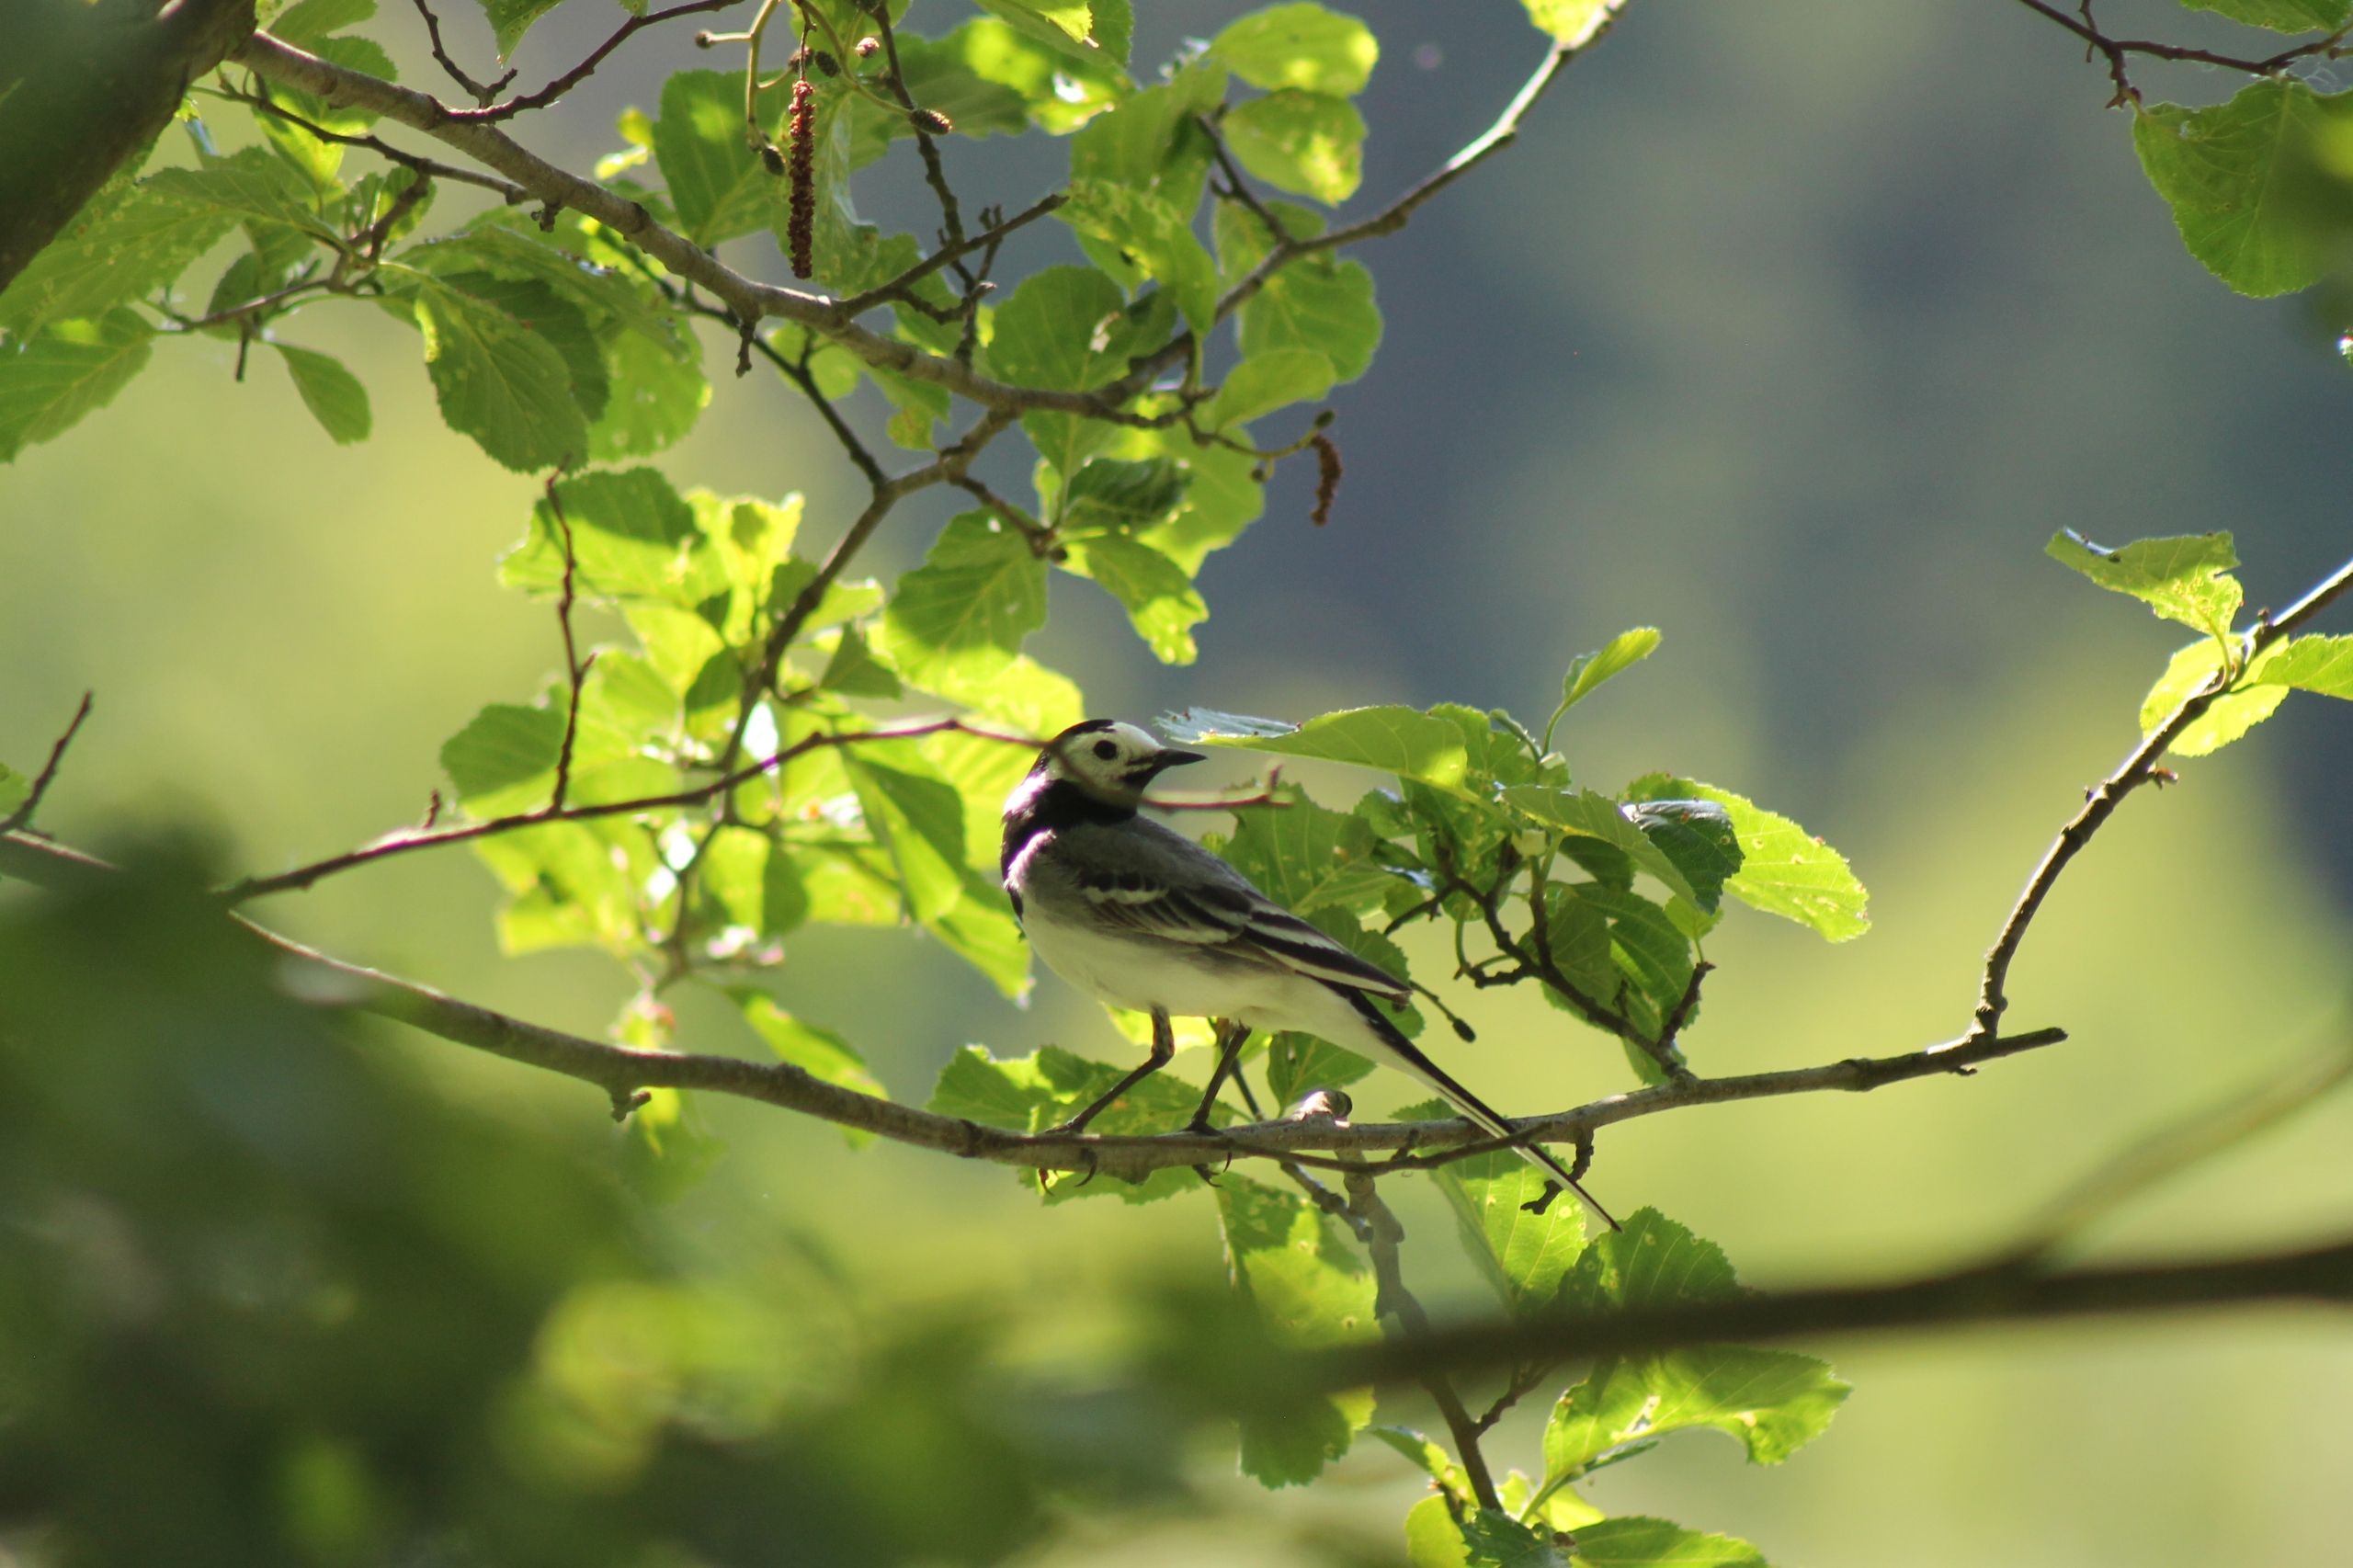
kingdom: Animalia
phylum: Chordata
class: Aves
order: Passeriformes
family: Motacillidae
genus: Motacilla
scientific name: Motacilla alba
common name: Hvid vipstjert
